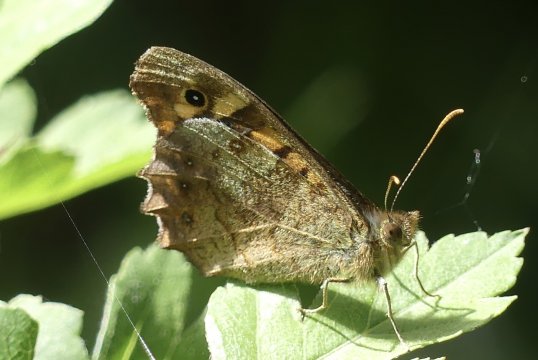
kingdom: Animalia
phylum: Arthropoda
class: Insecta
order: Lepidoptera
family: Nymphalidae
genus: Pararge
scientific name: Pararge Lasiommata megera
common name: Wall
